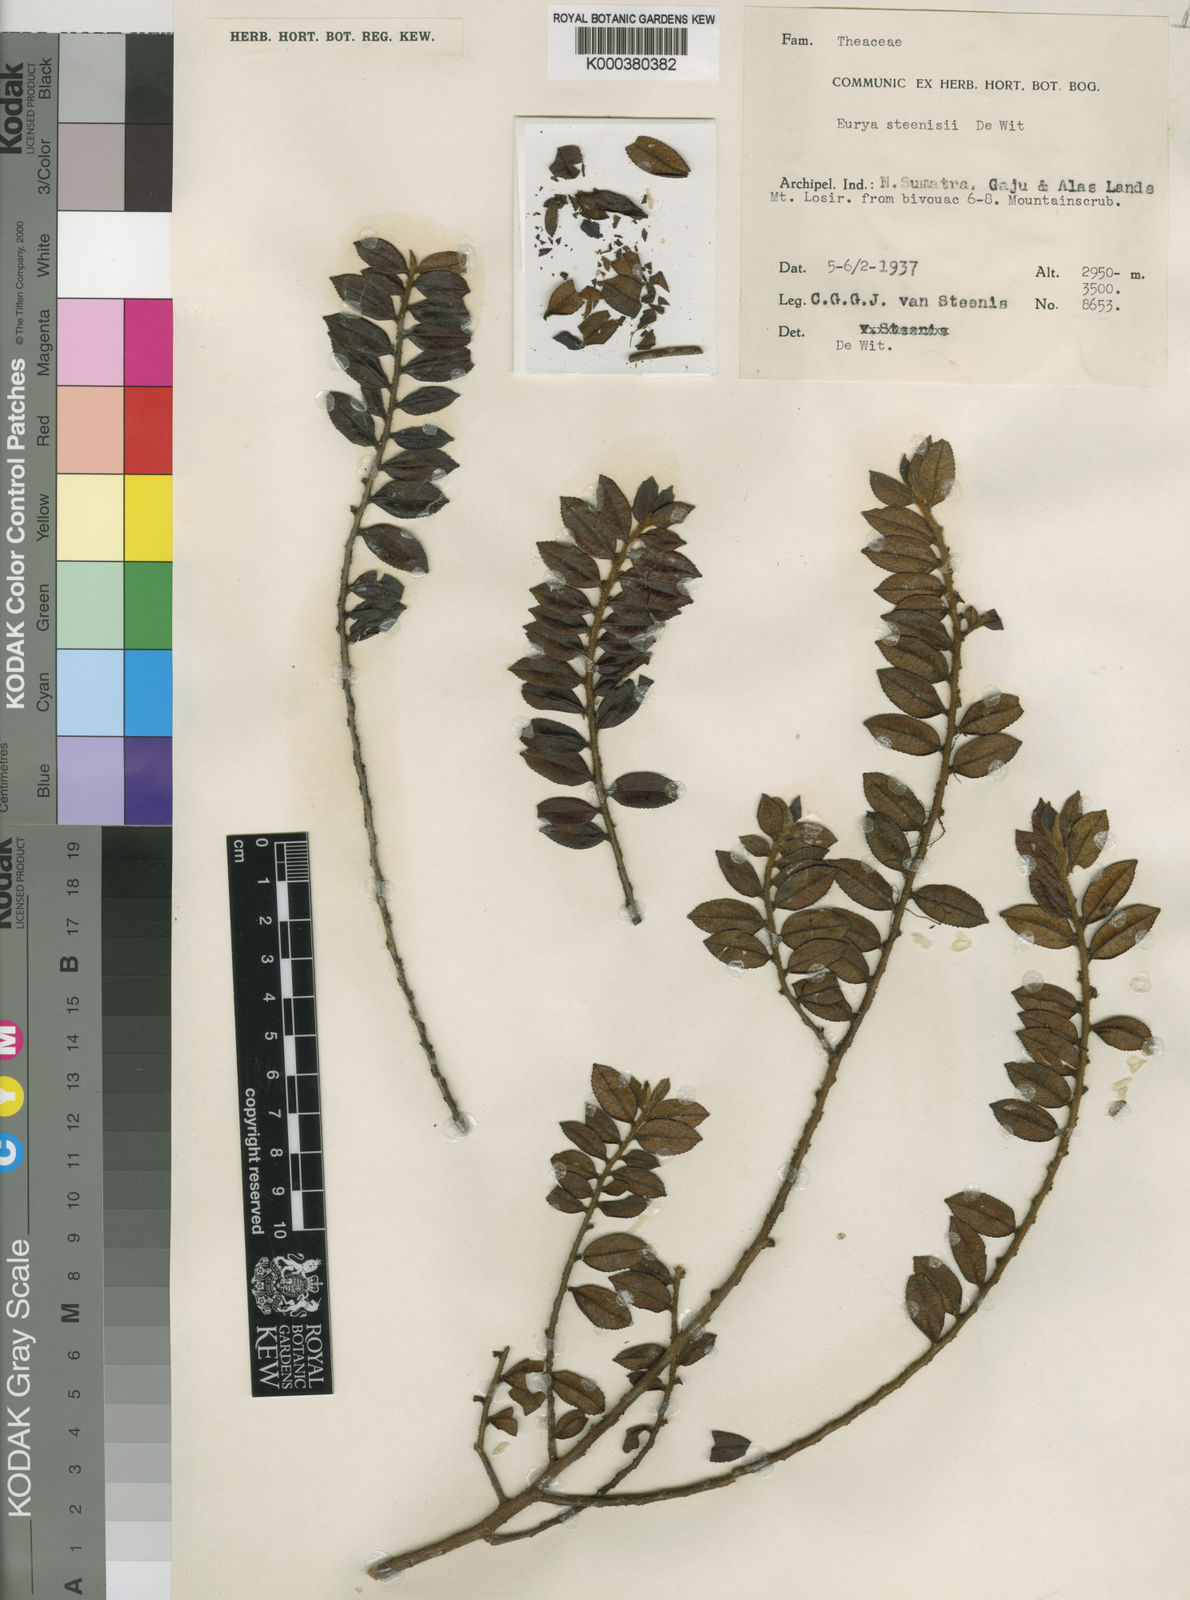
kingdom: Plantae
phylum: Tracheophyta
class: Magnoliopsida
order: Ericales
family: Pentaphylacaceae
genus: Eurya
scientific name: Eurya steenisii
